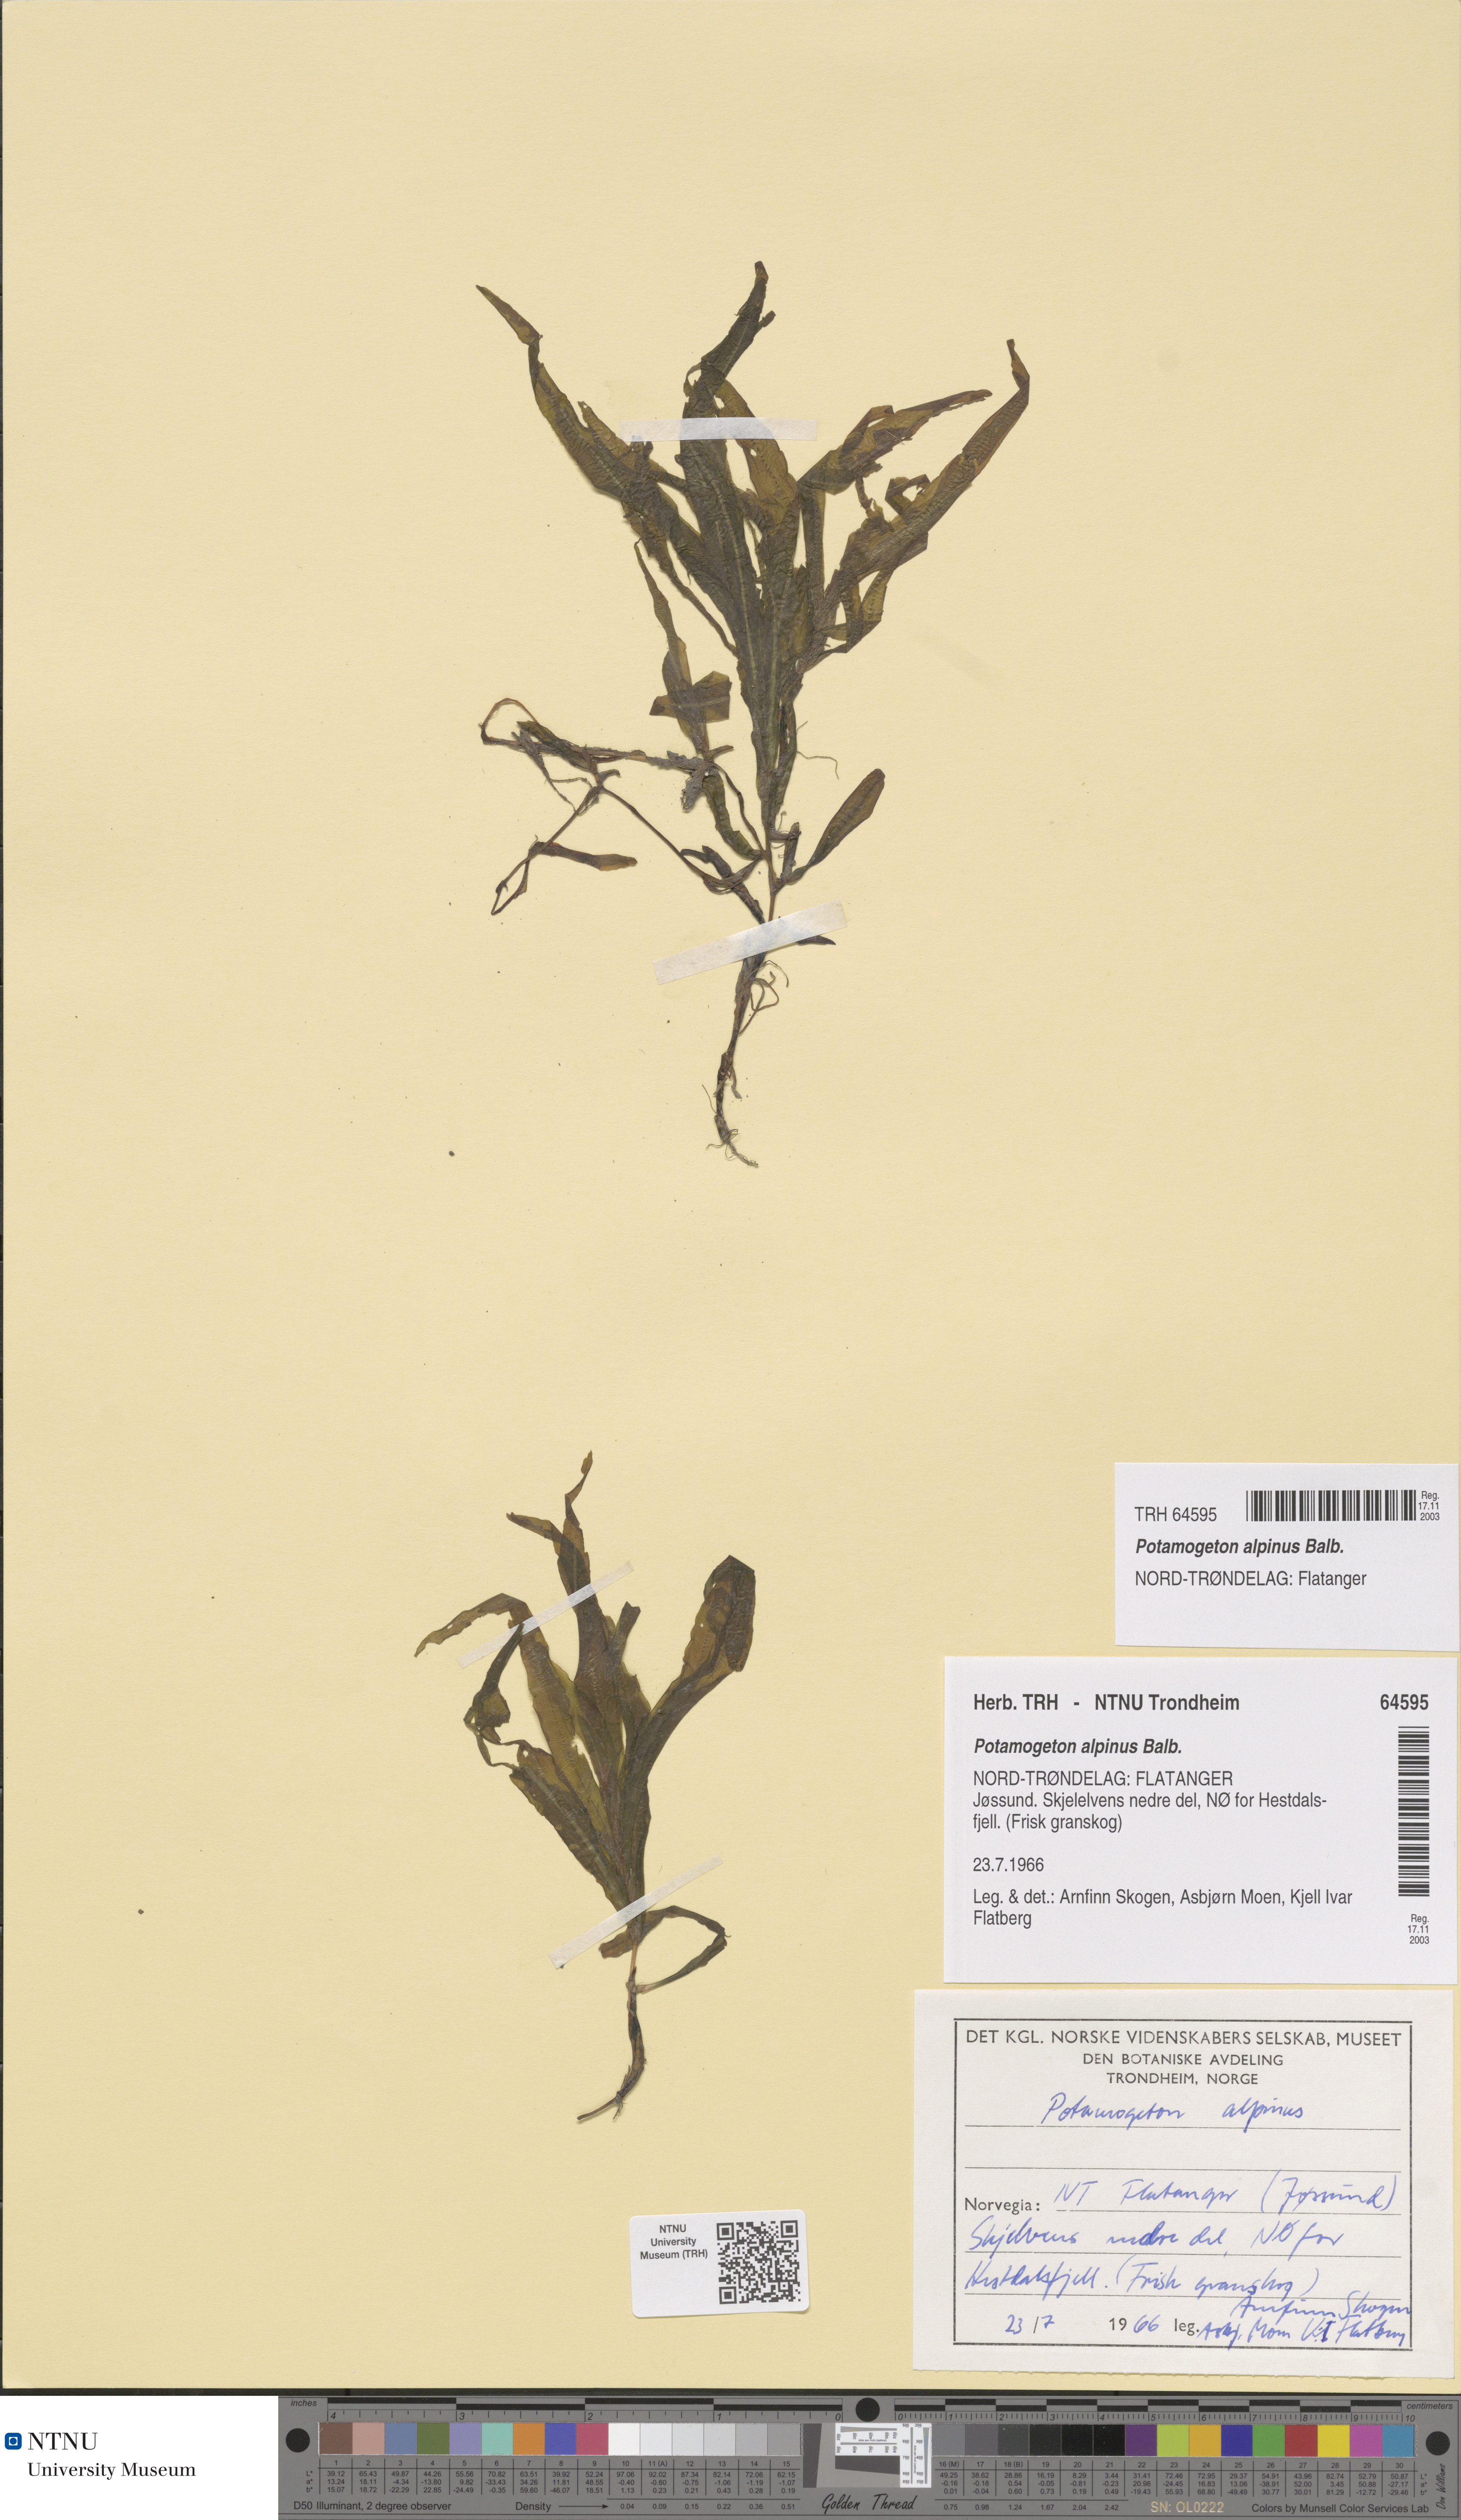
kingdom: Plantae
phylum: Tracheophyta
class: Liliopsida
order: Alismatales
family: Potamogetonaceae
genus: Potamogeton
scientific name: Potamogeton alpinus
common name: Red pondweed
